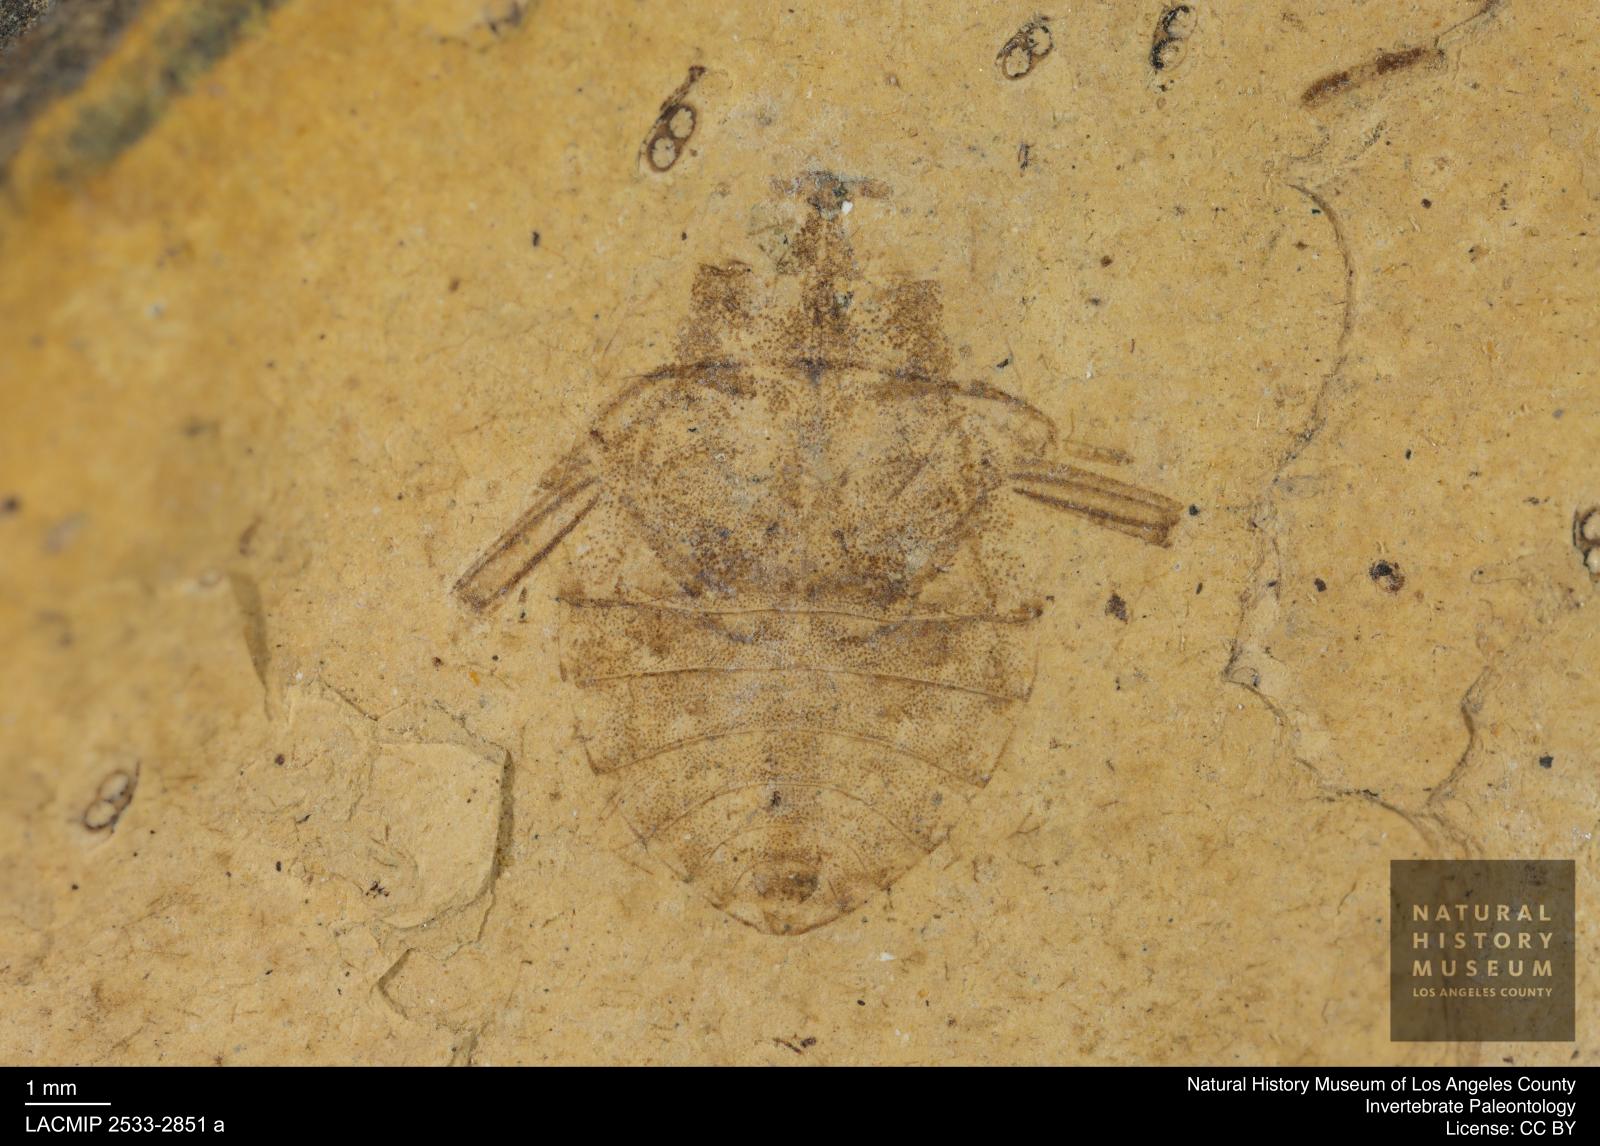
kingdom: Animalia
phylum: Arthropoda
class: Insecta
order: Hemiptera
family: Naucoridae
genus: Naucoris
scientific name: Naucoris rottensis
